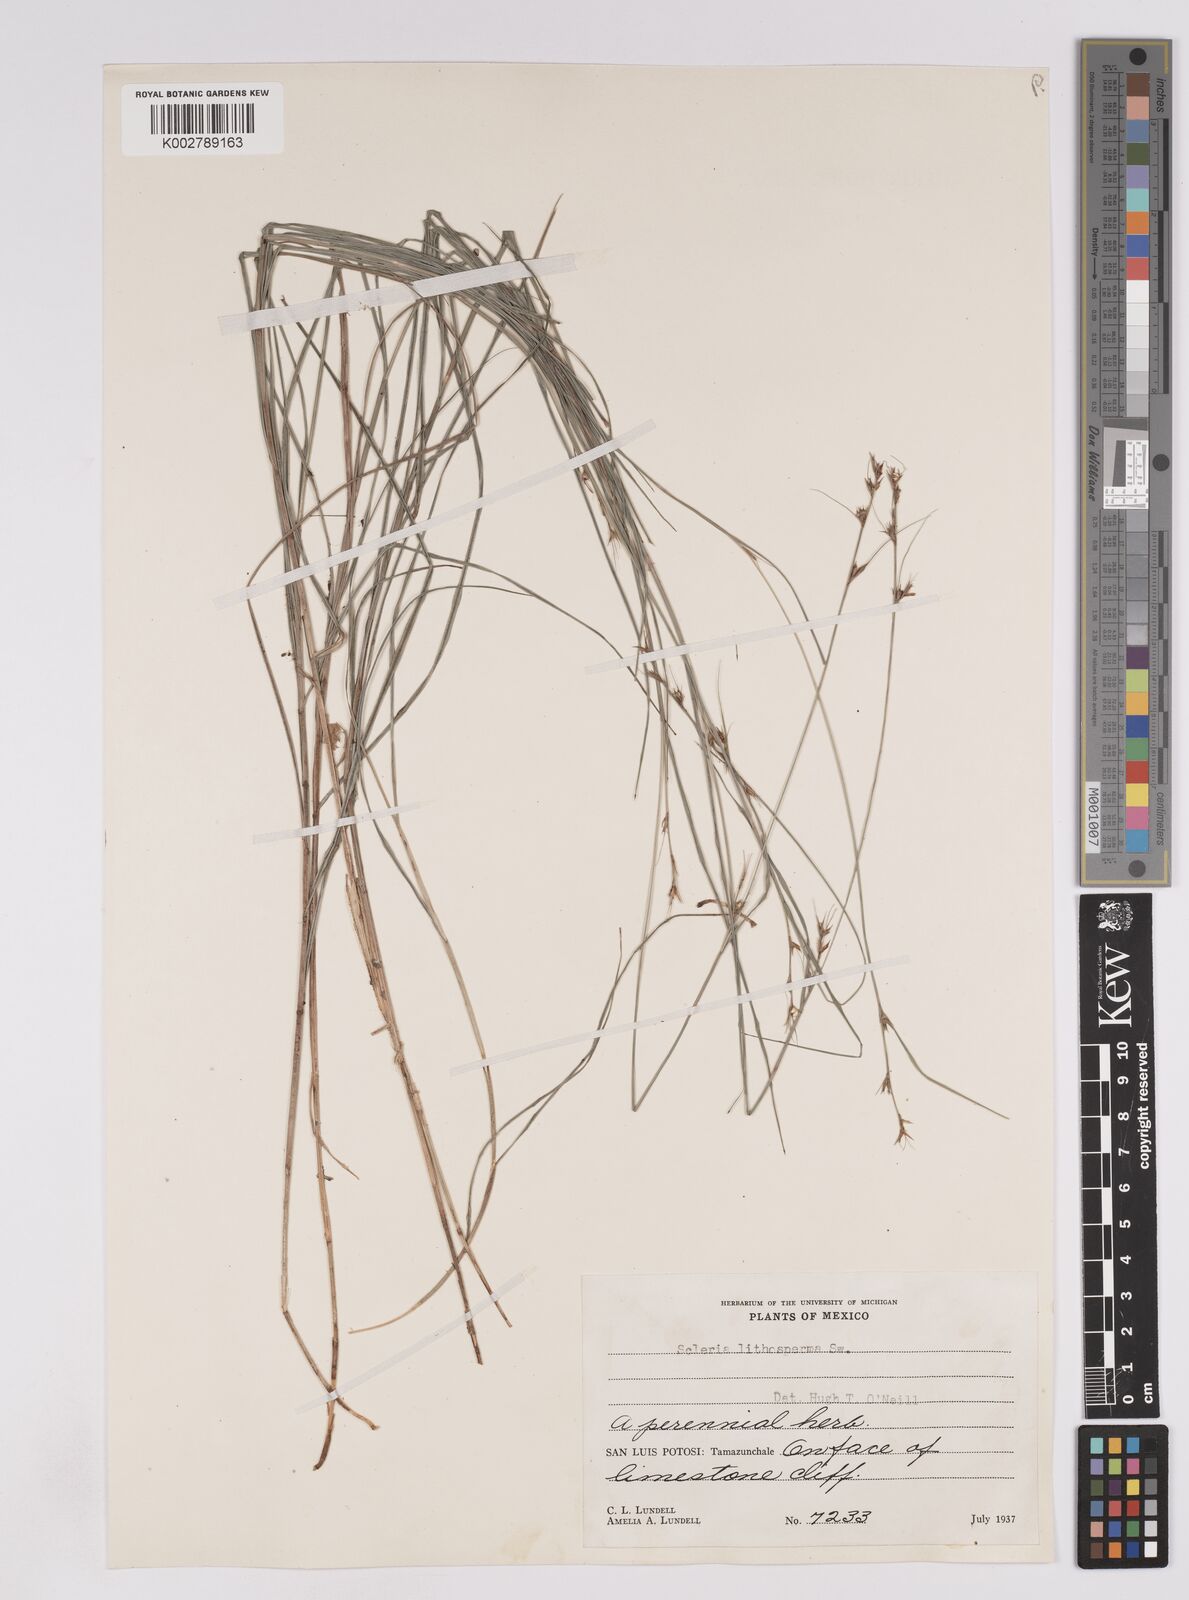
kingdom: Plantae
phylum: Tracheophyta
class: Liliopsida
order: Poales
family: Cyperaceae
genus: Scleria
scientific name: Scleria lithosperma
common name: Florida keys nut-rush
